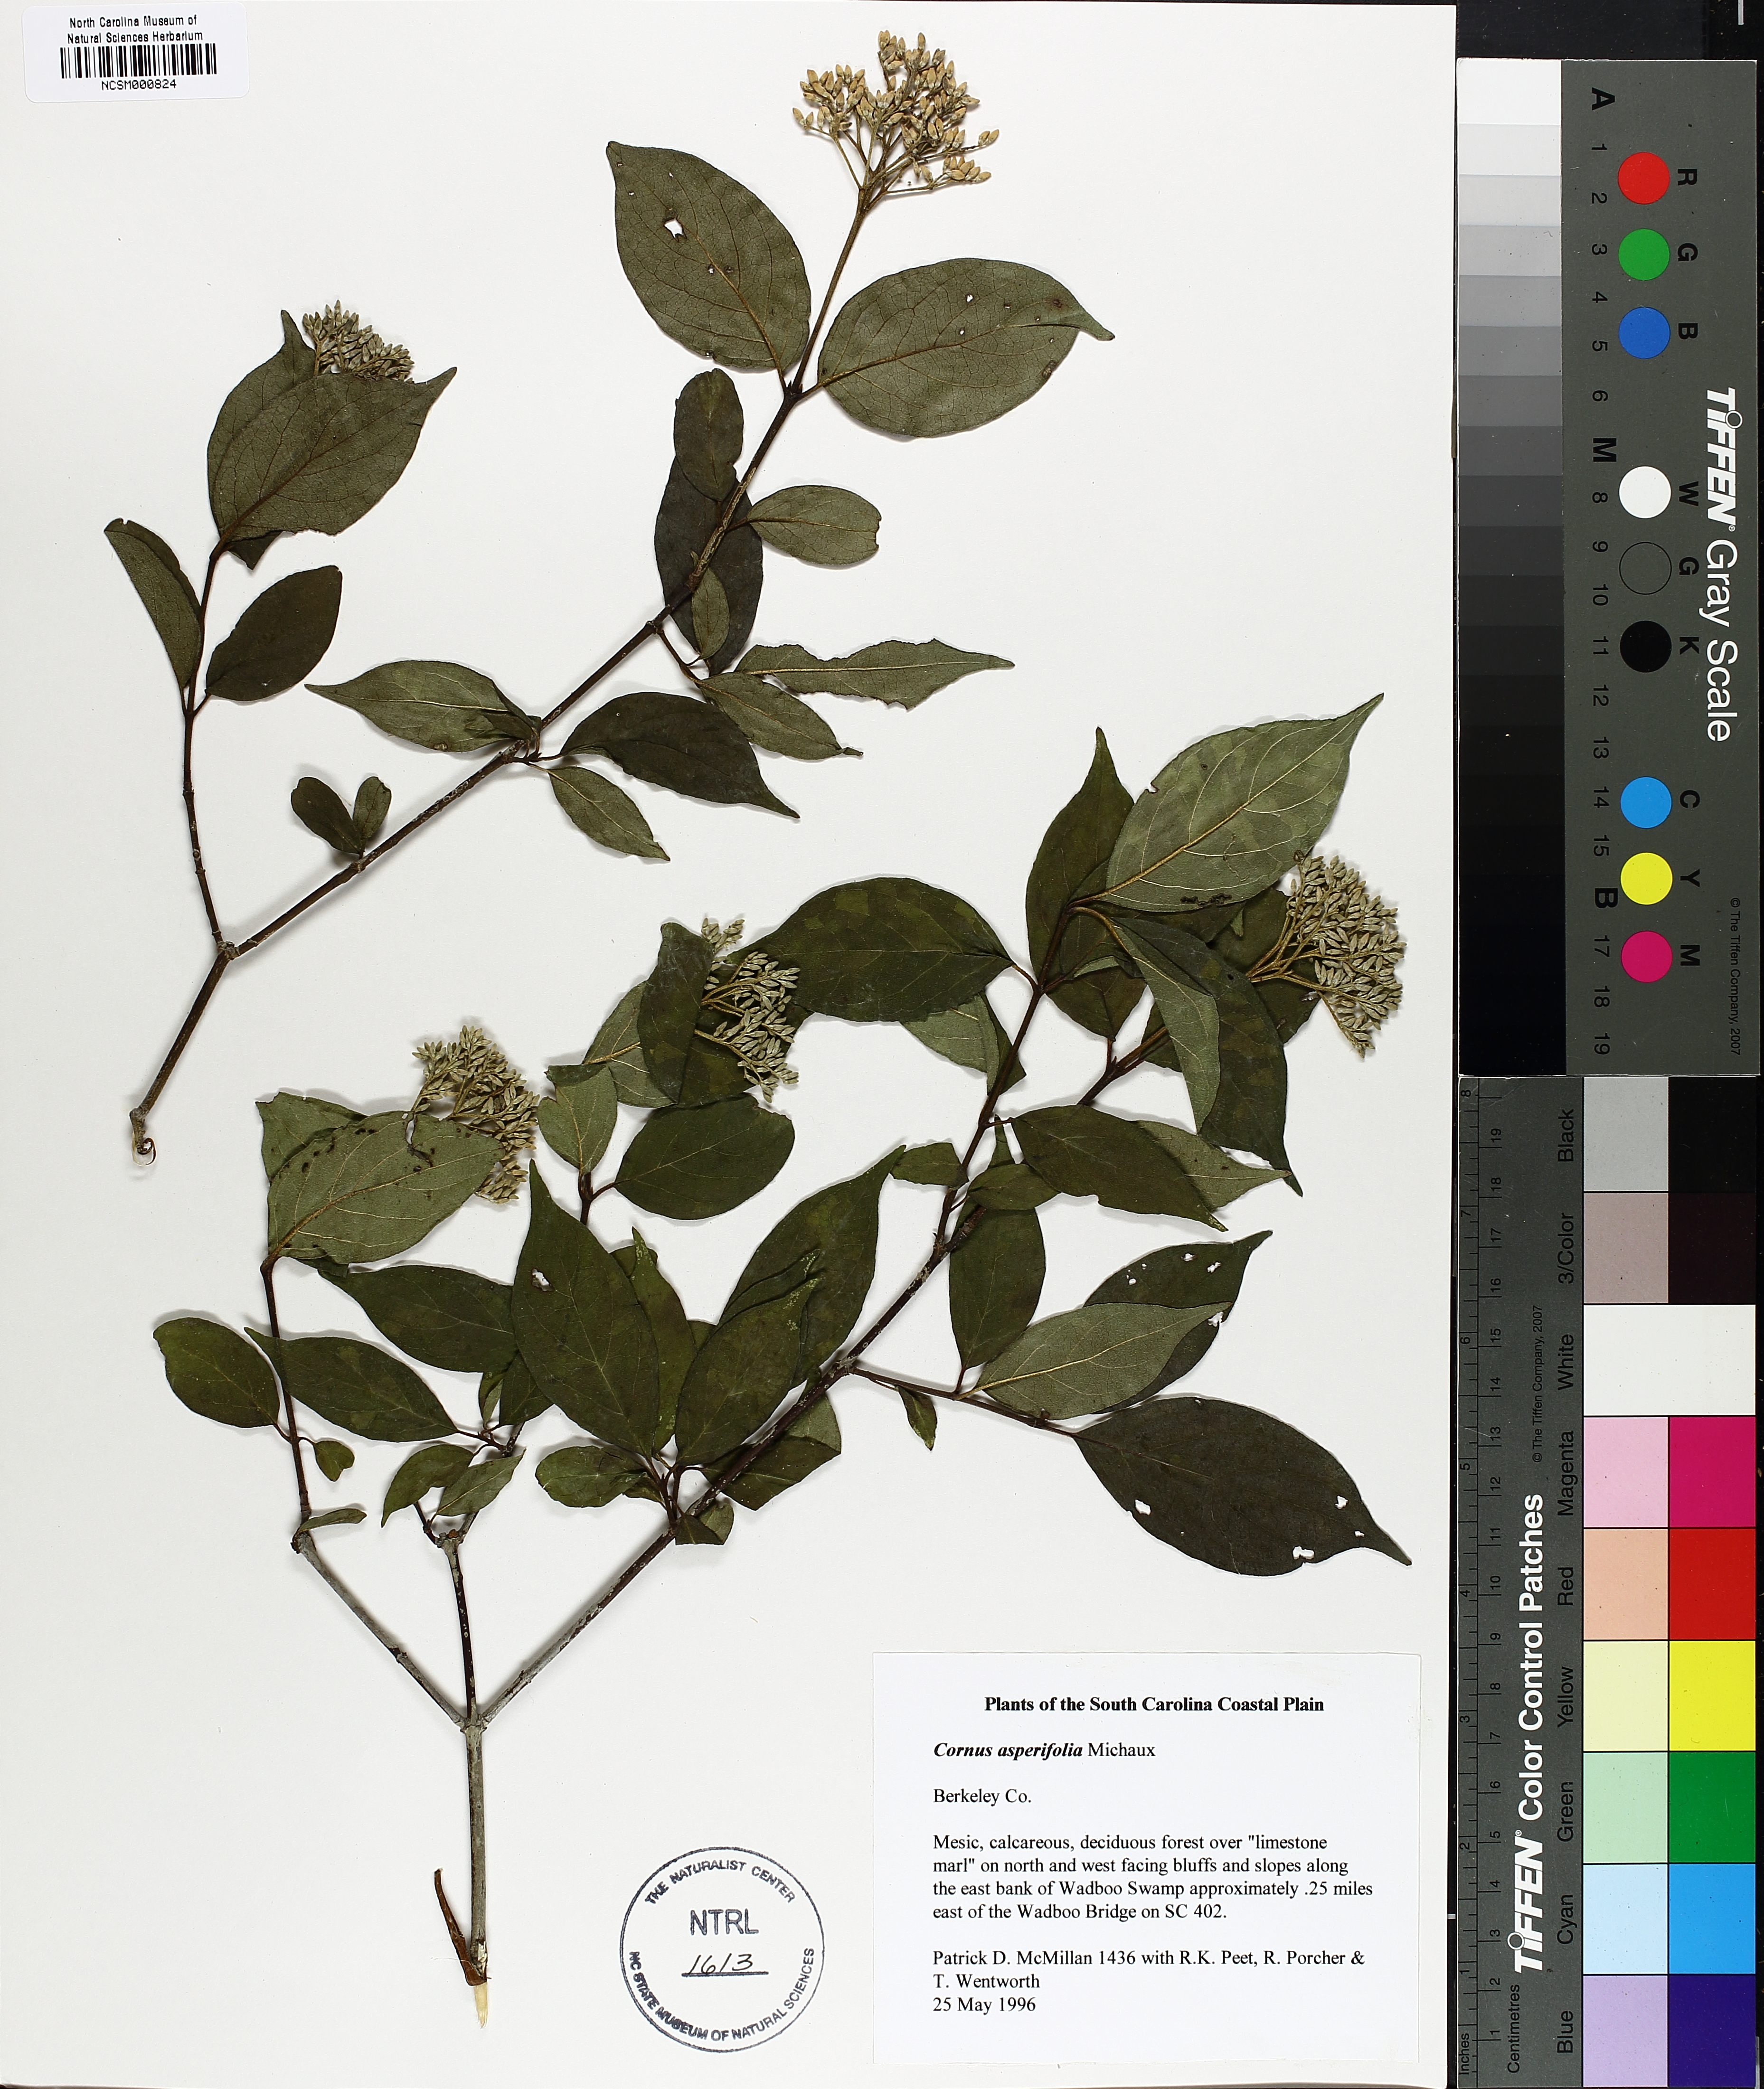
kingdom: Plantae
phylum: Tracheophyta
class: Magnoliopsida
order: Cornales
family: Cornaceae
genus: Cornus
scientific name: Cornus asperifolia
